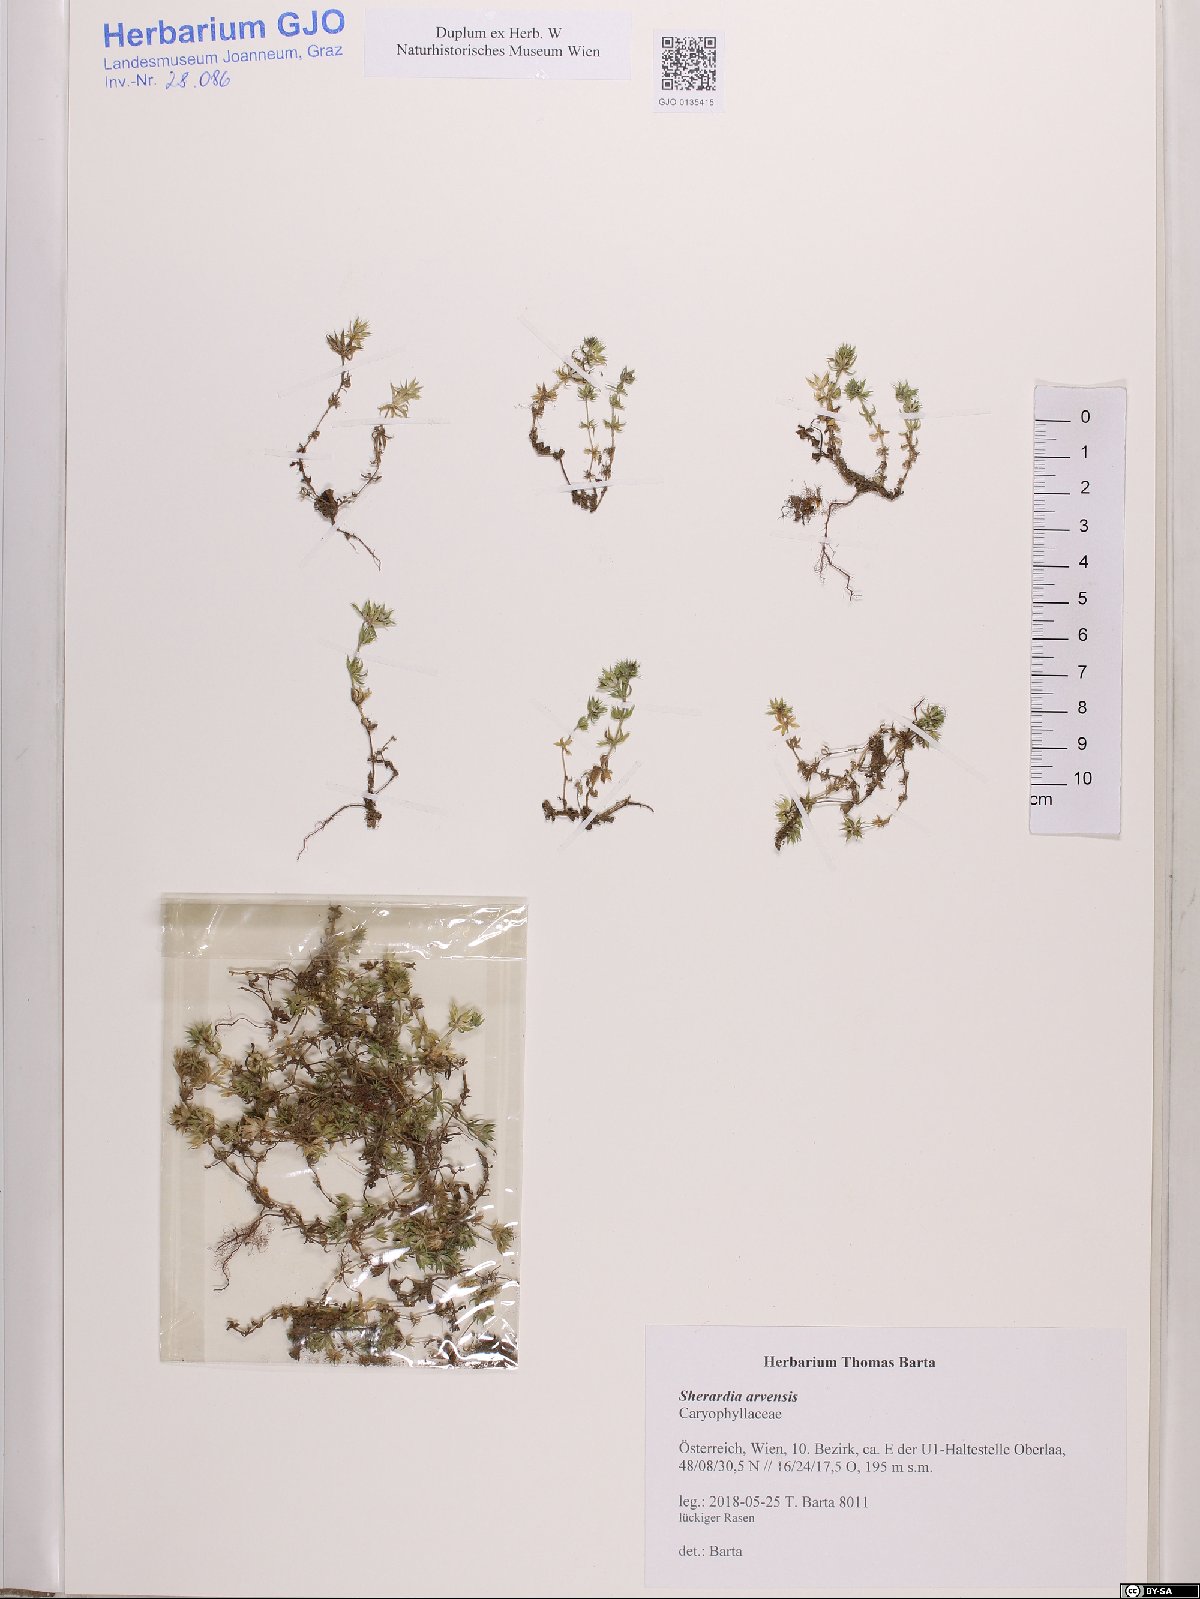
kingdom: Plantae
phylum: Tracheophyta
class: Magnoliopsida
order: Gentianales
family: Rubiaceae
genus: Sherardia
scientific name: Sherardia arvensis
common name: Field madder
